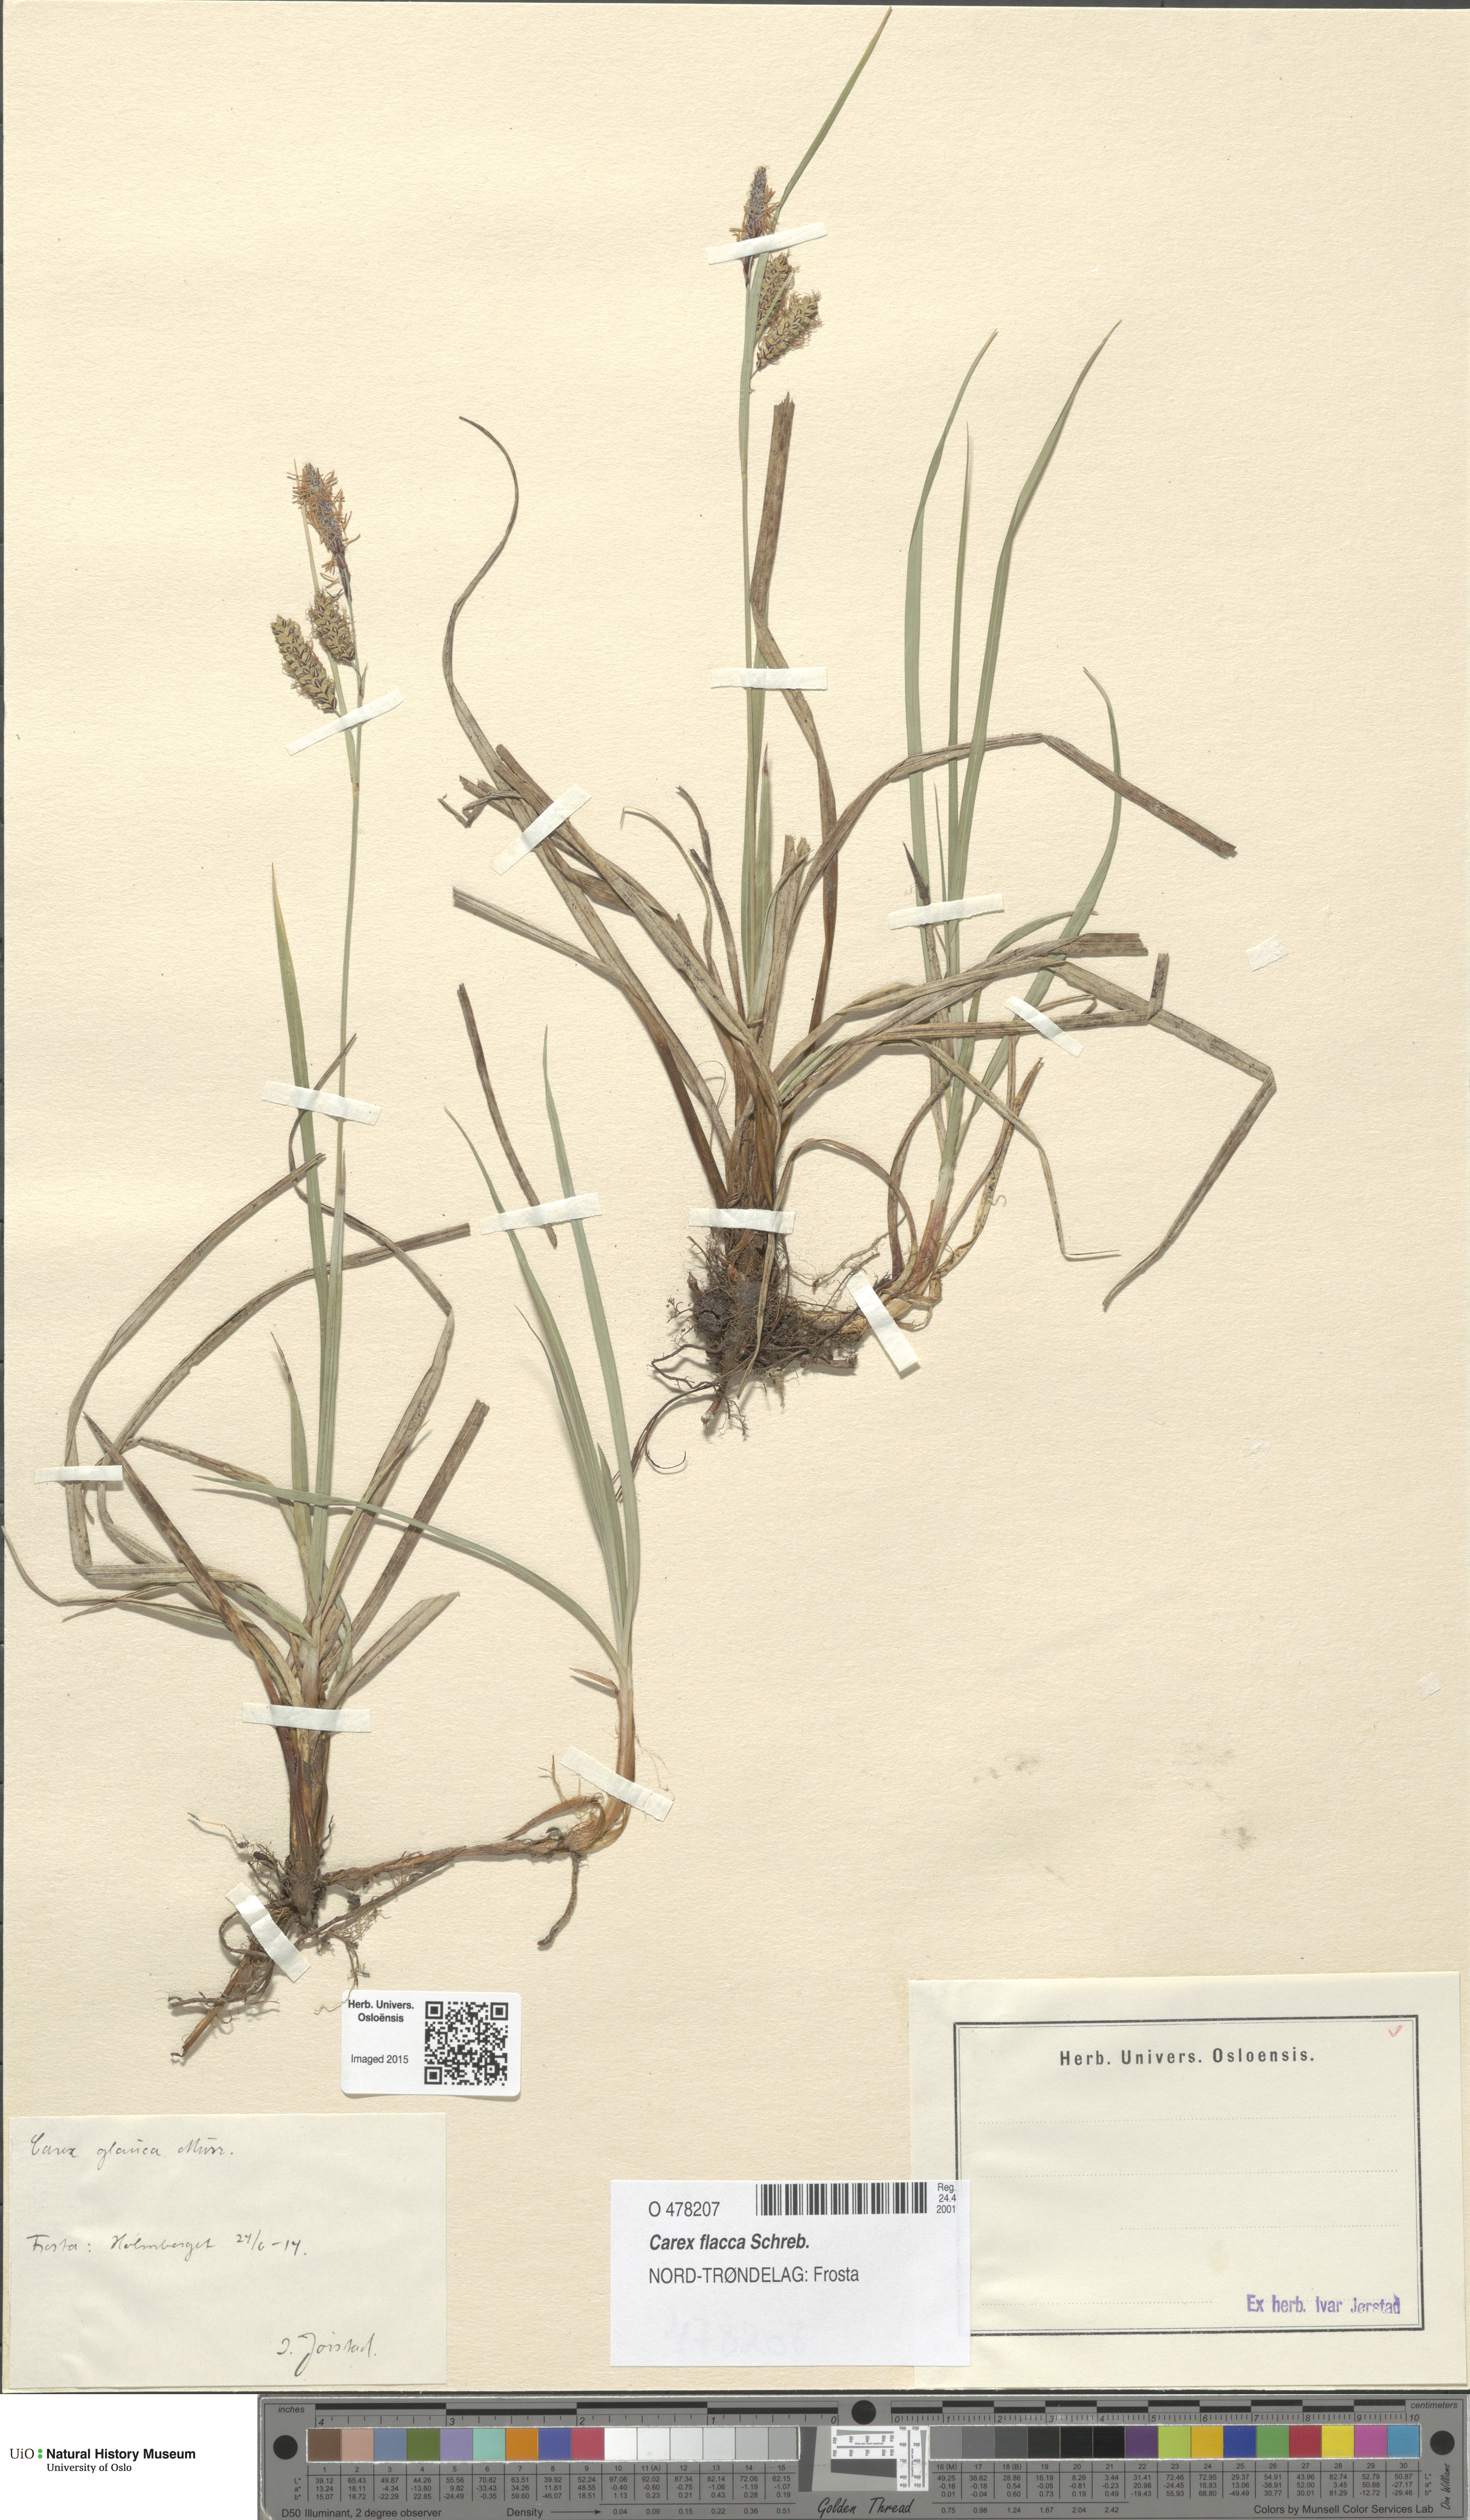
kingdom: Plantae
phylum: Tracheophyta
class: Liliopsida
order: Poales
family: Cyperaceae
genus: Carex
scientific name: Carex flacca
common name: Glaucous sedge
